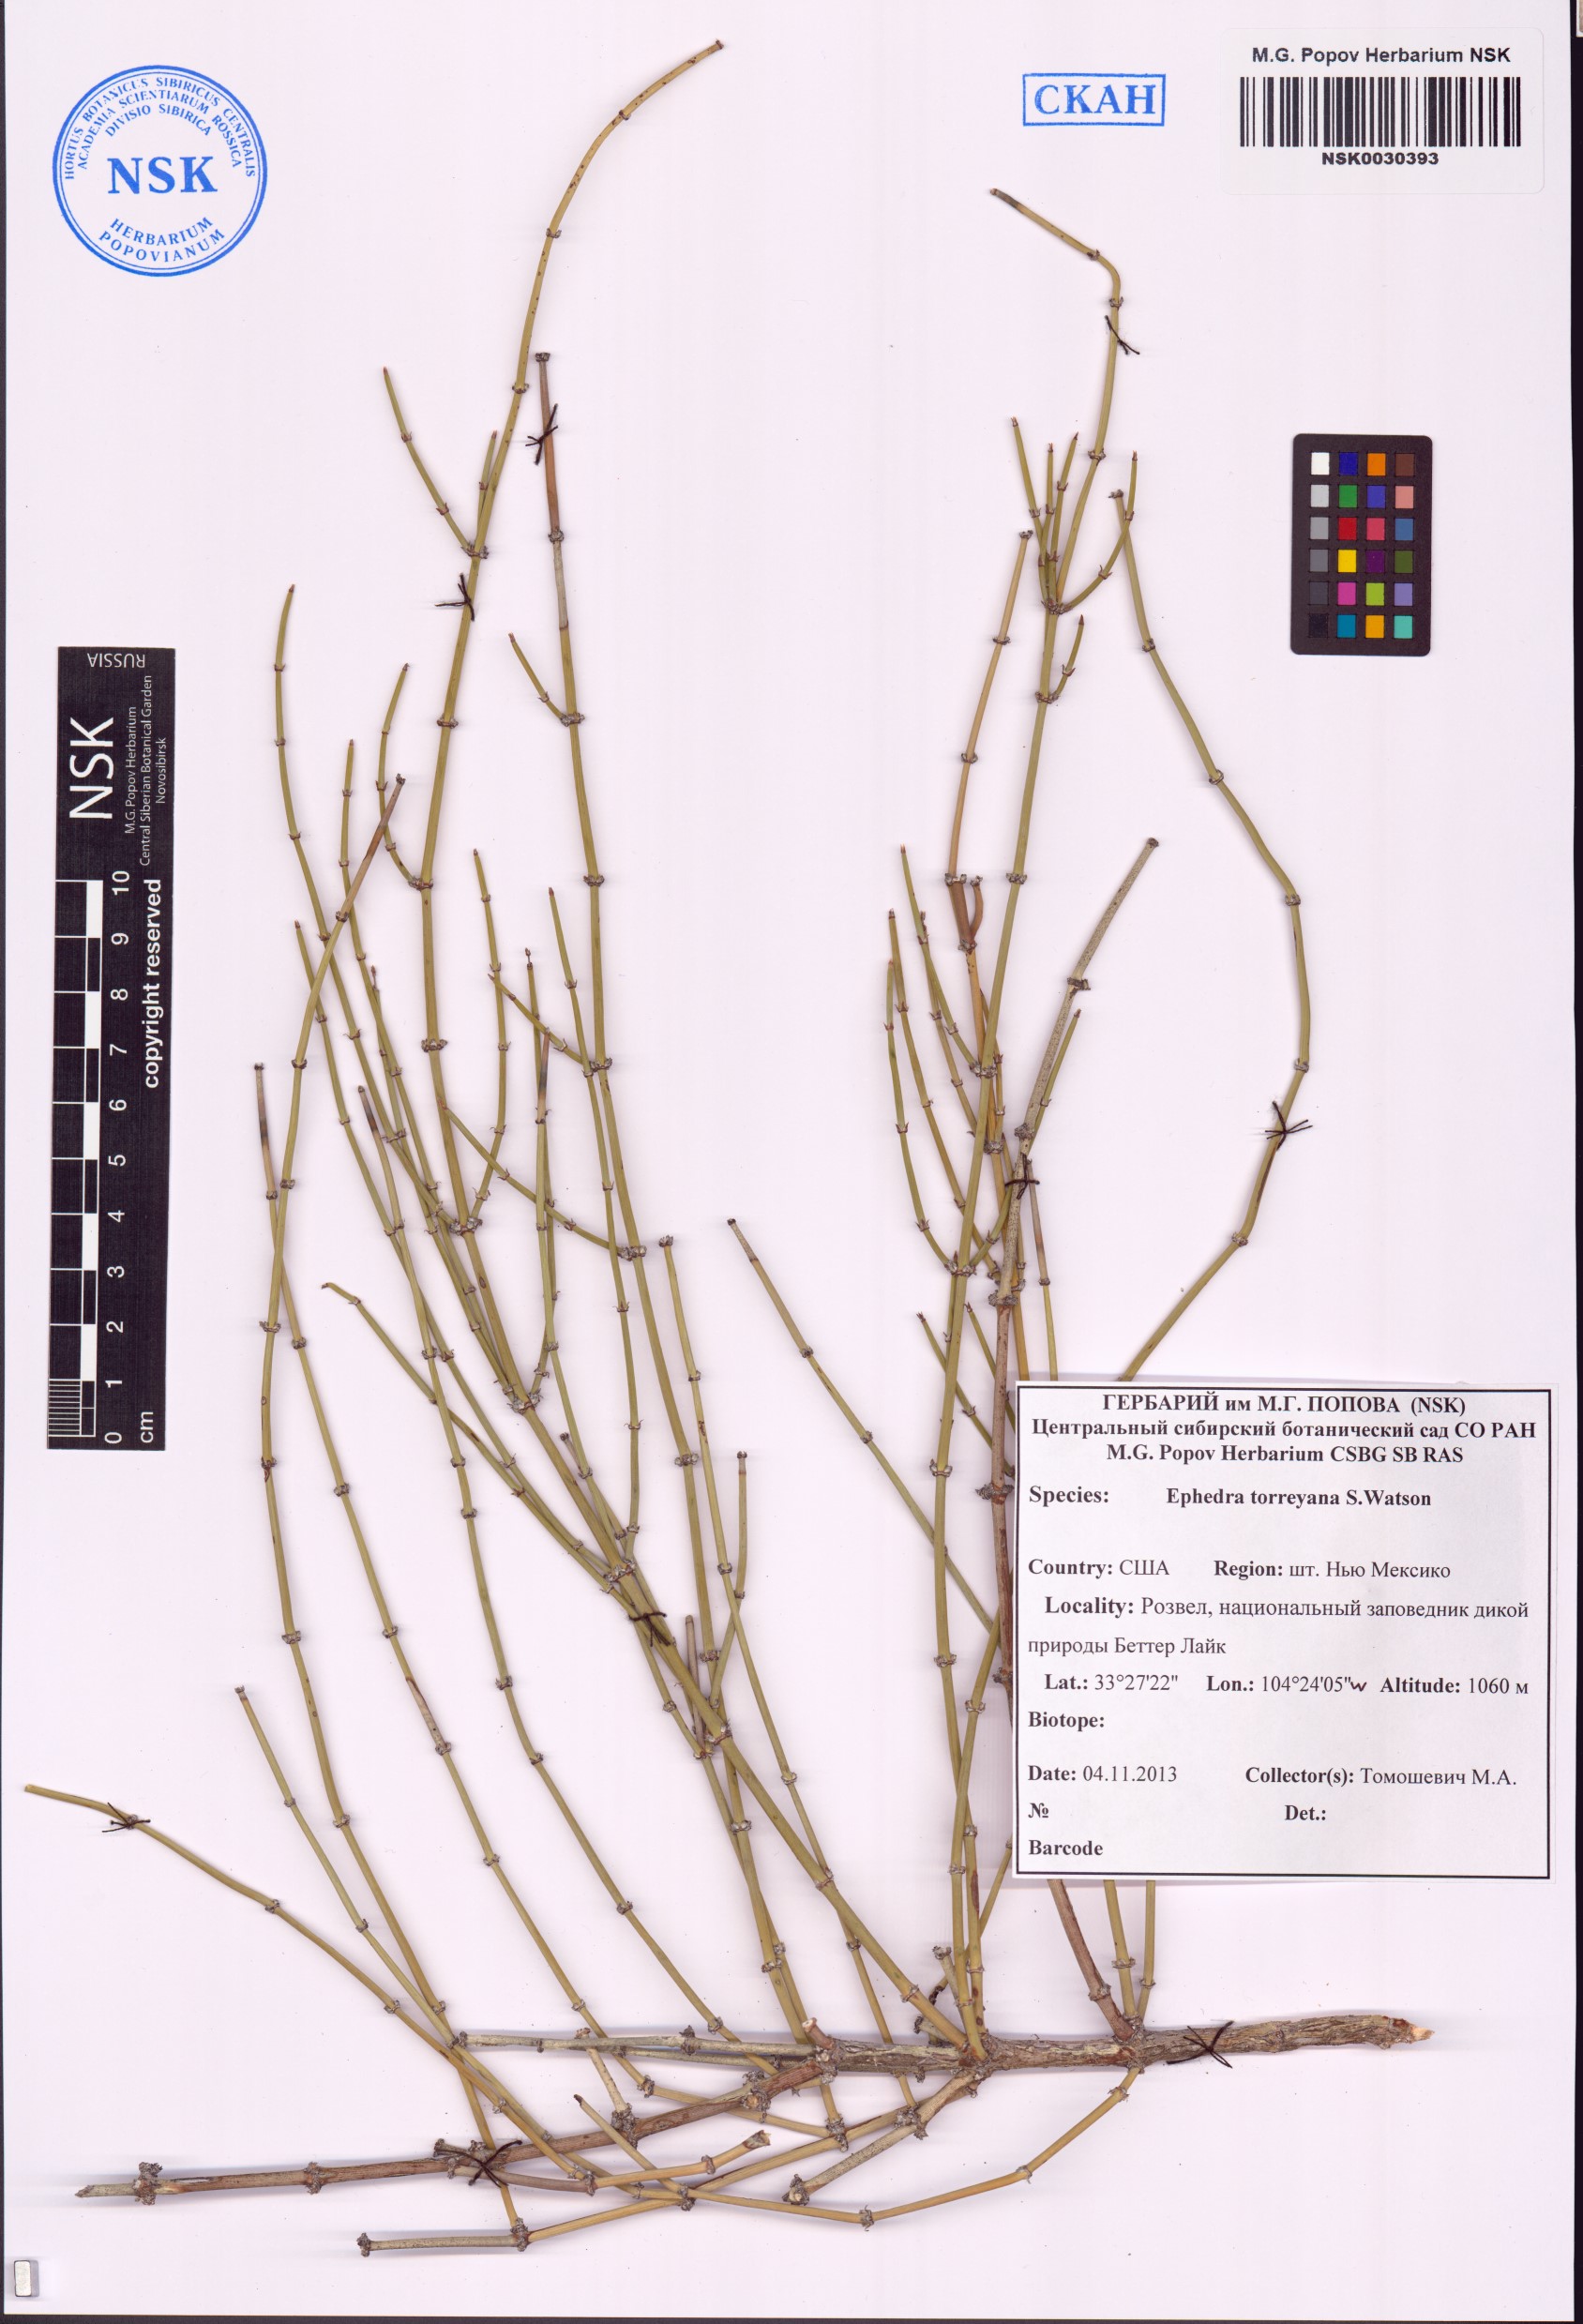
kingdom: Plantae
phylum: Tracheophyta
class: Gnetopsida
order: Ephedrales
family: Ephedraceae
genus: Ephedra
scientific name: Ephedra torreyana
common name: Torrey ephedra
